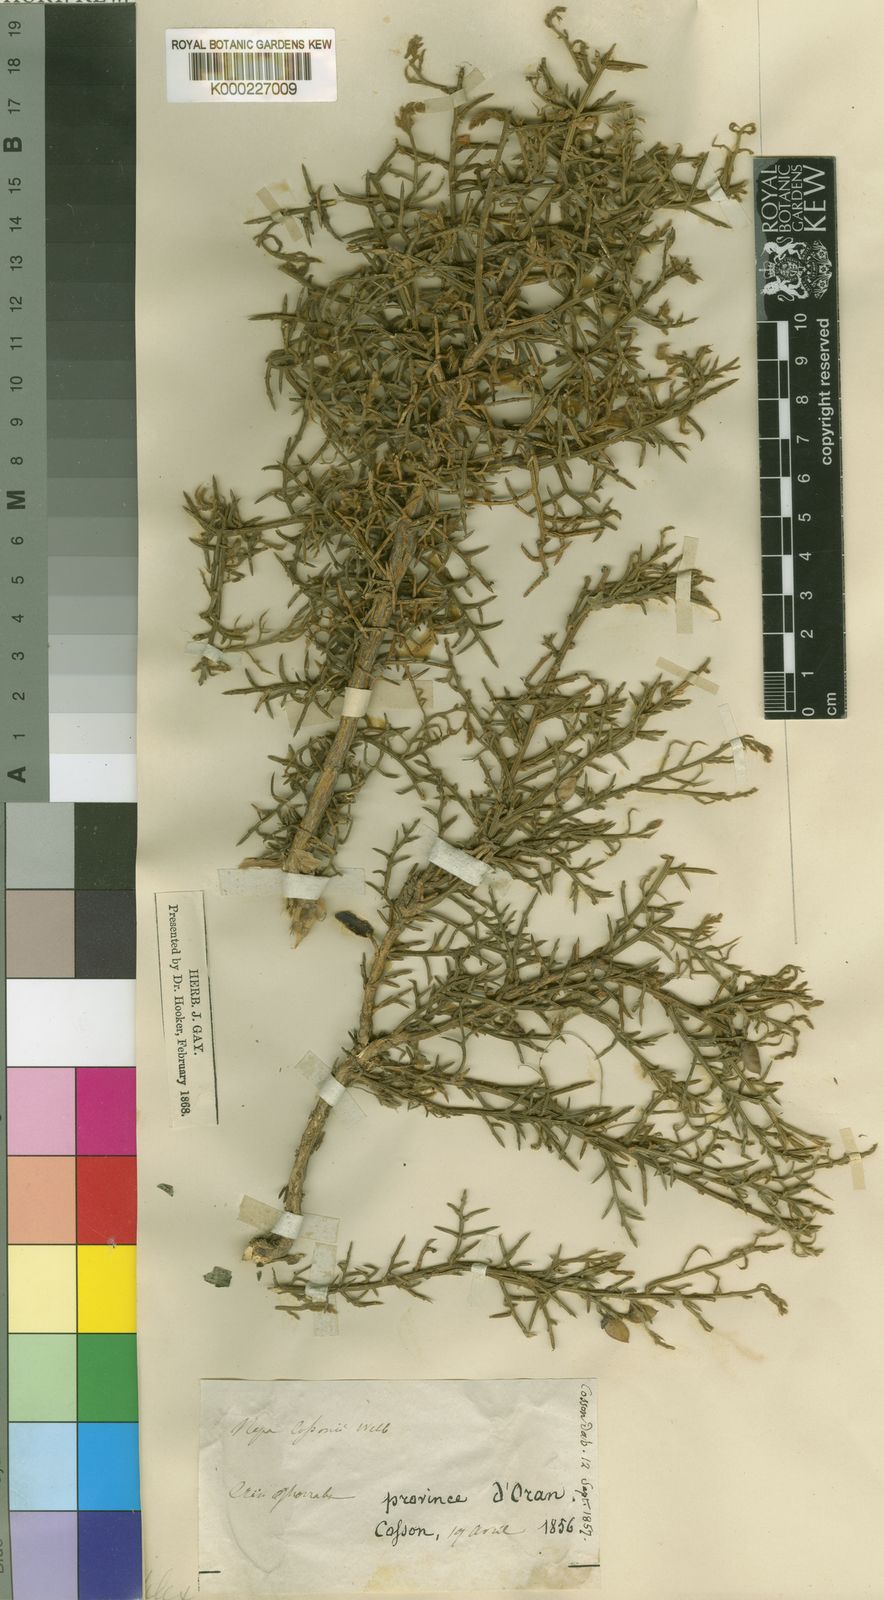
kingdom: Plantae
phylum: Tracheophyta
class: Magnoliopsida
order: Fabales
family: Fabaceae
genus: Ulex
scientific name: Ulex
